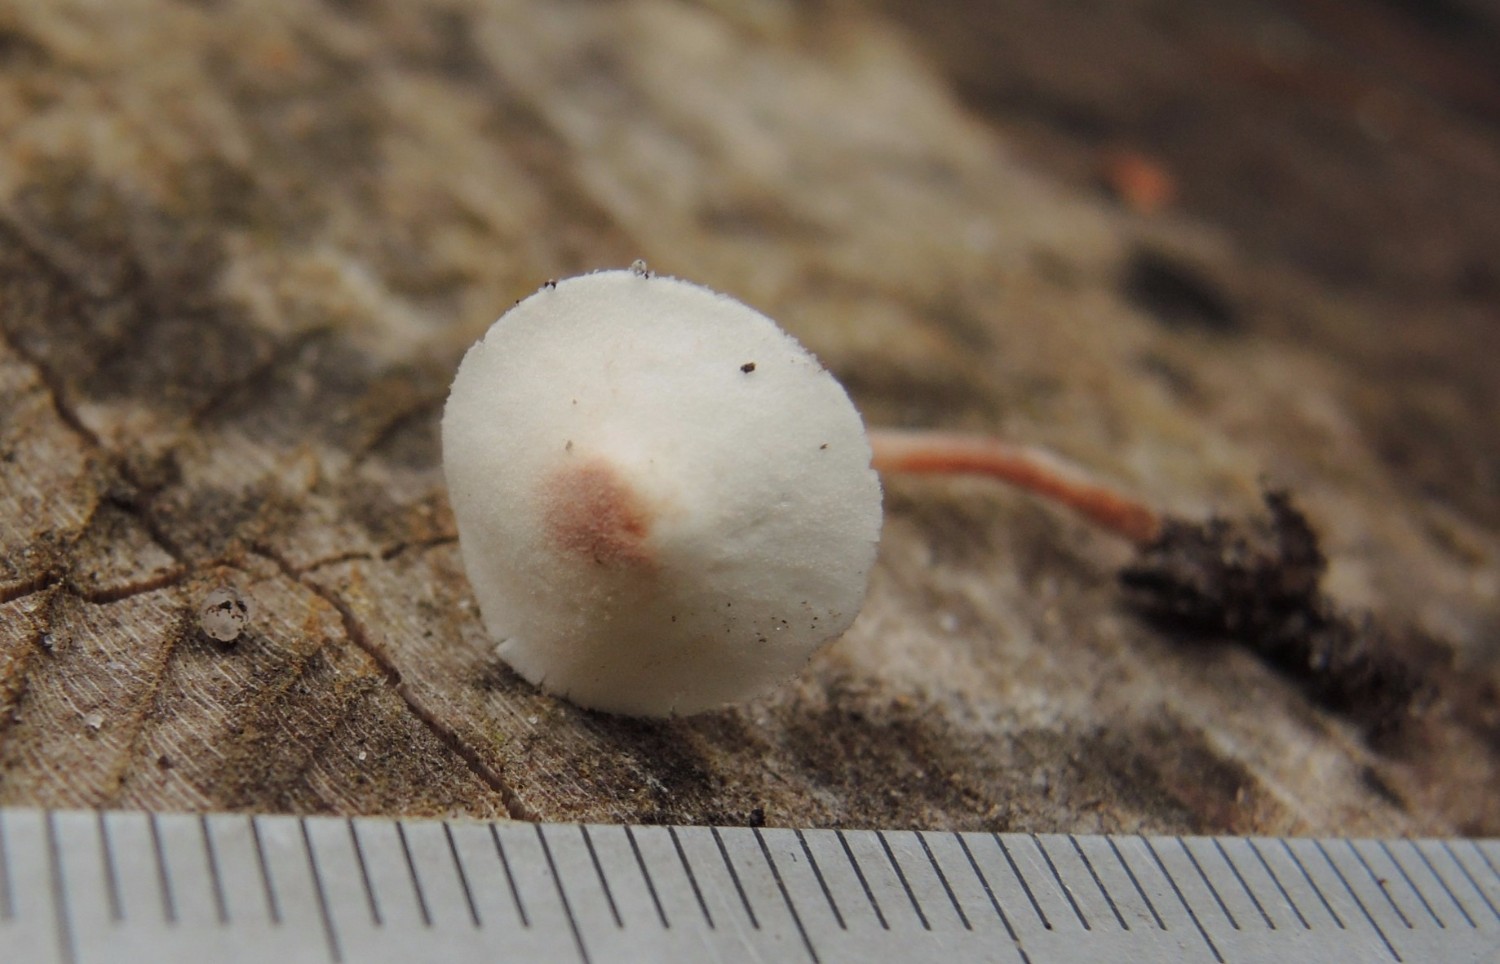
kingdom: Fungi
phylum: Basidiomycota
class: Agaricomycetes
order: Agaricales
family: Agaricaceae
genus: Cystolepiota
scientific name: Cystolepiota seminuda
